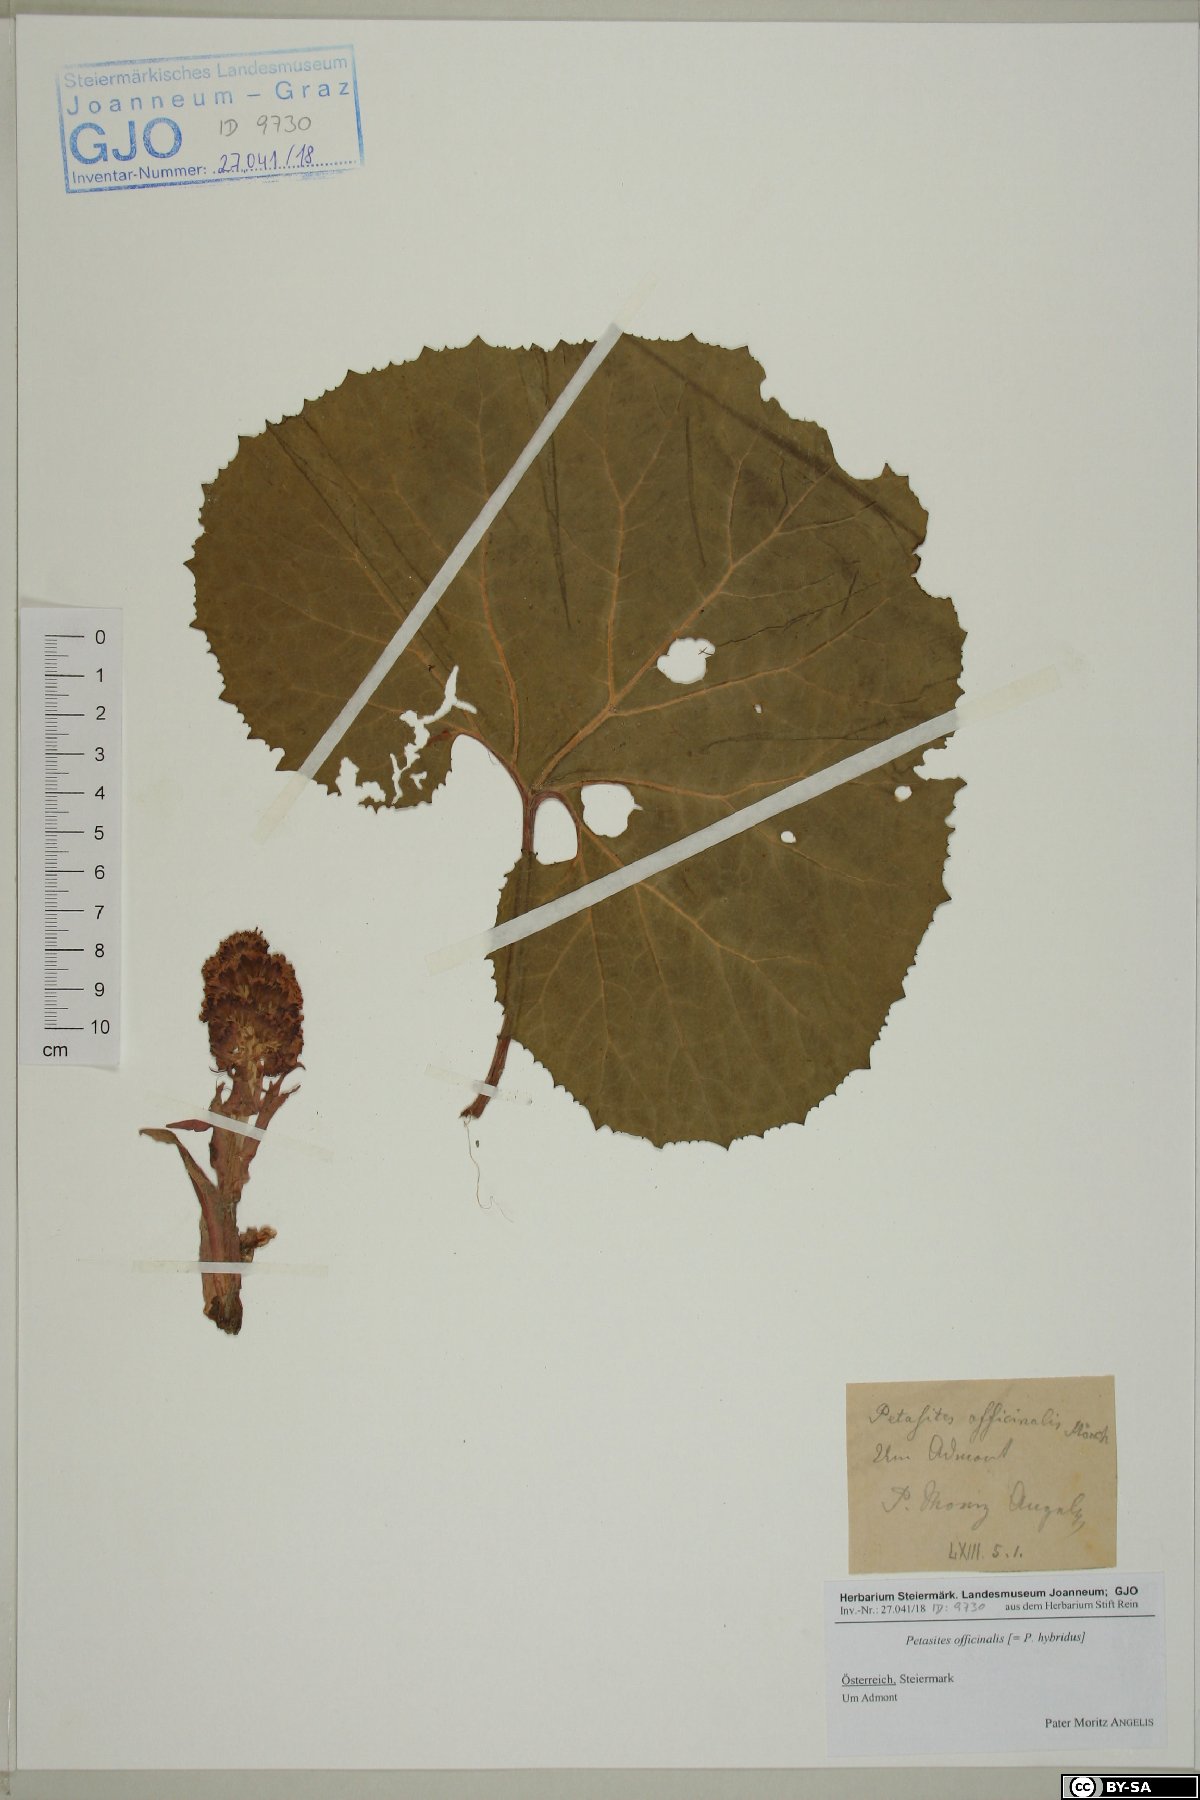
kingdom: Plantae
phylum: Tracheophyta
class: Magnoliopsida
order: Asterales
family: Asteraceae
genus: Petasites
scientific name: Petasites hybridus
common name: Butterbur
